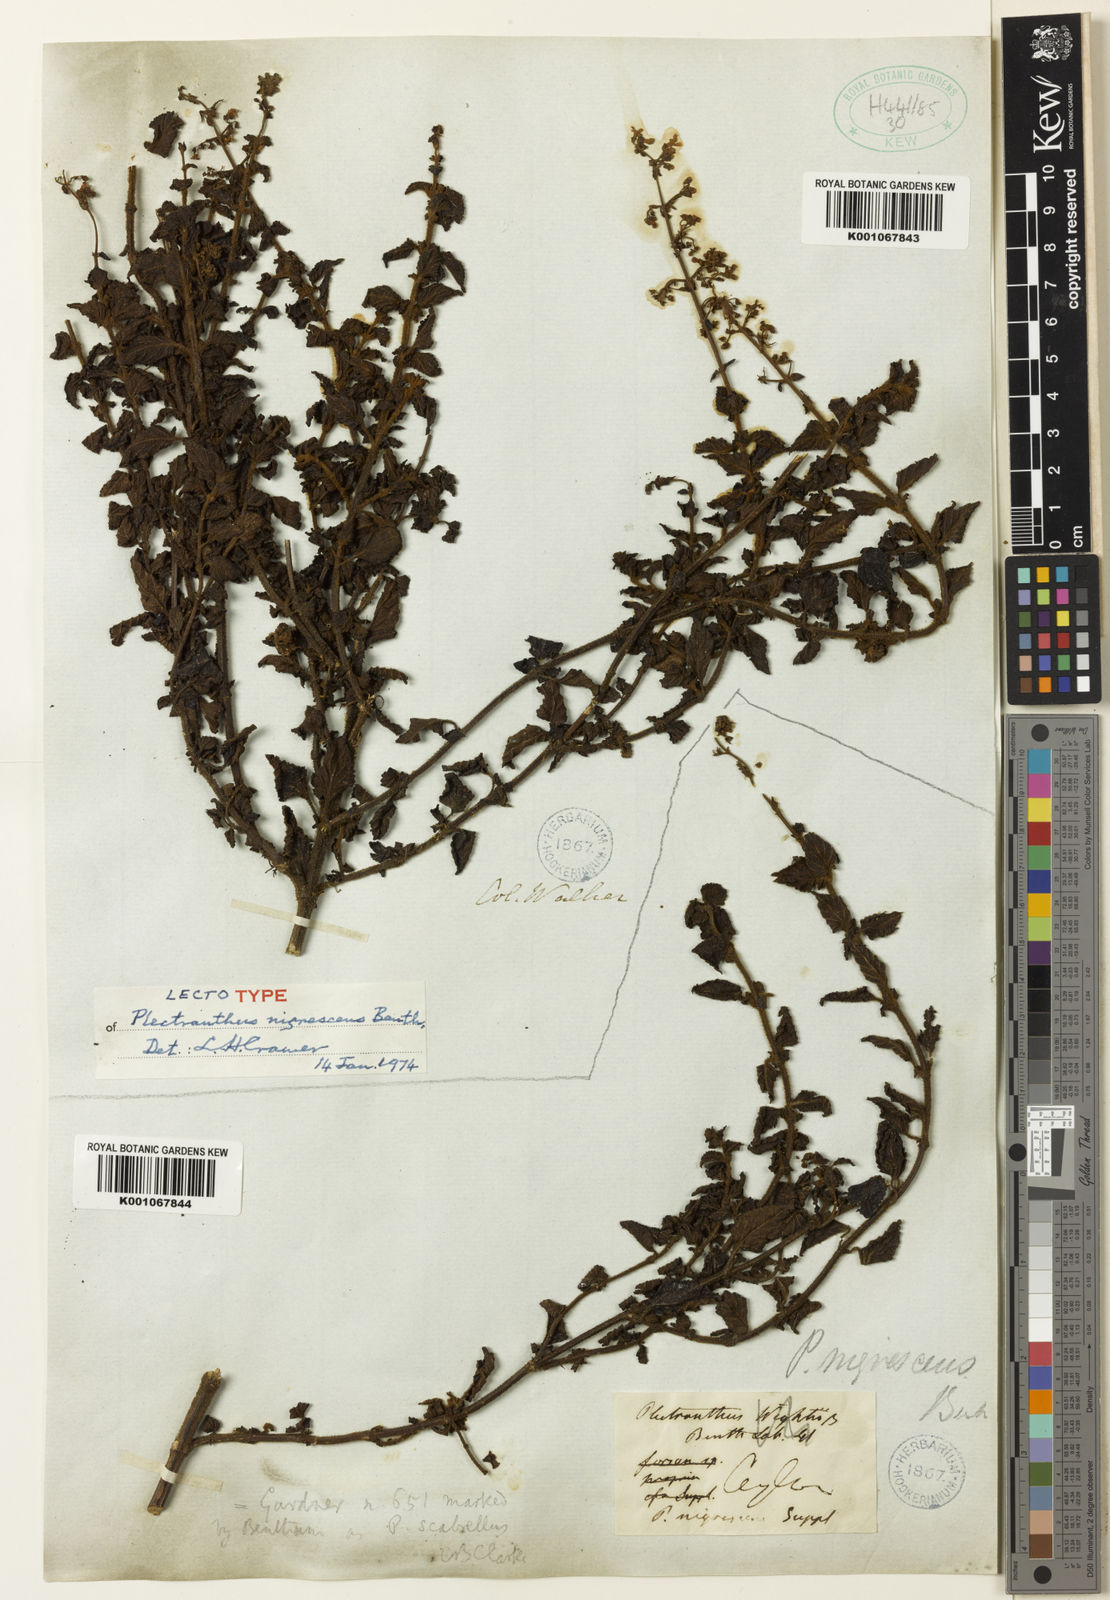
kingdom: Plantae
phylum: Tracheophyta
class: Magnoliopsida
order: Lamiales
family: Lamiaceae
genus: Isodon
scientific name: Isodon nigrescens
